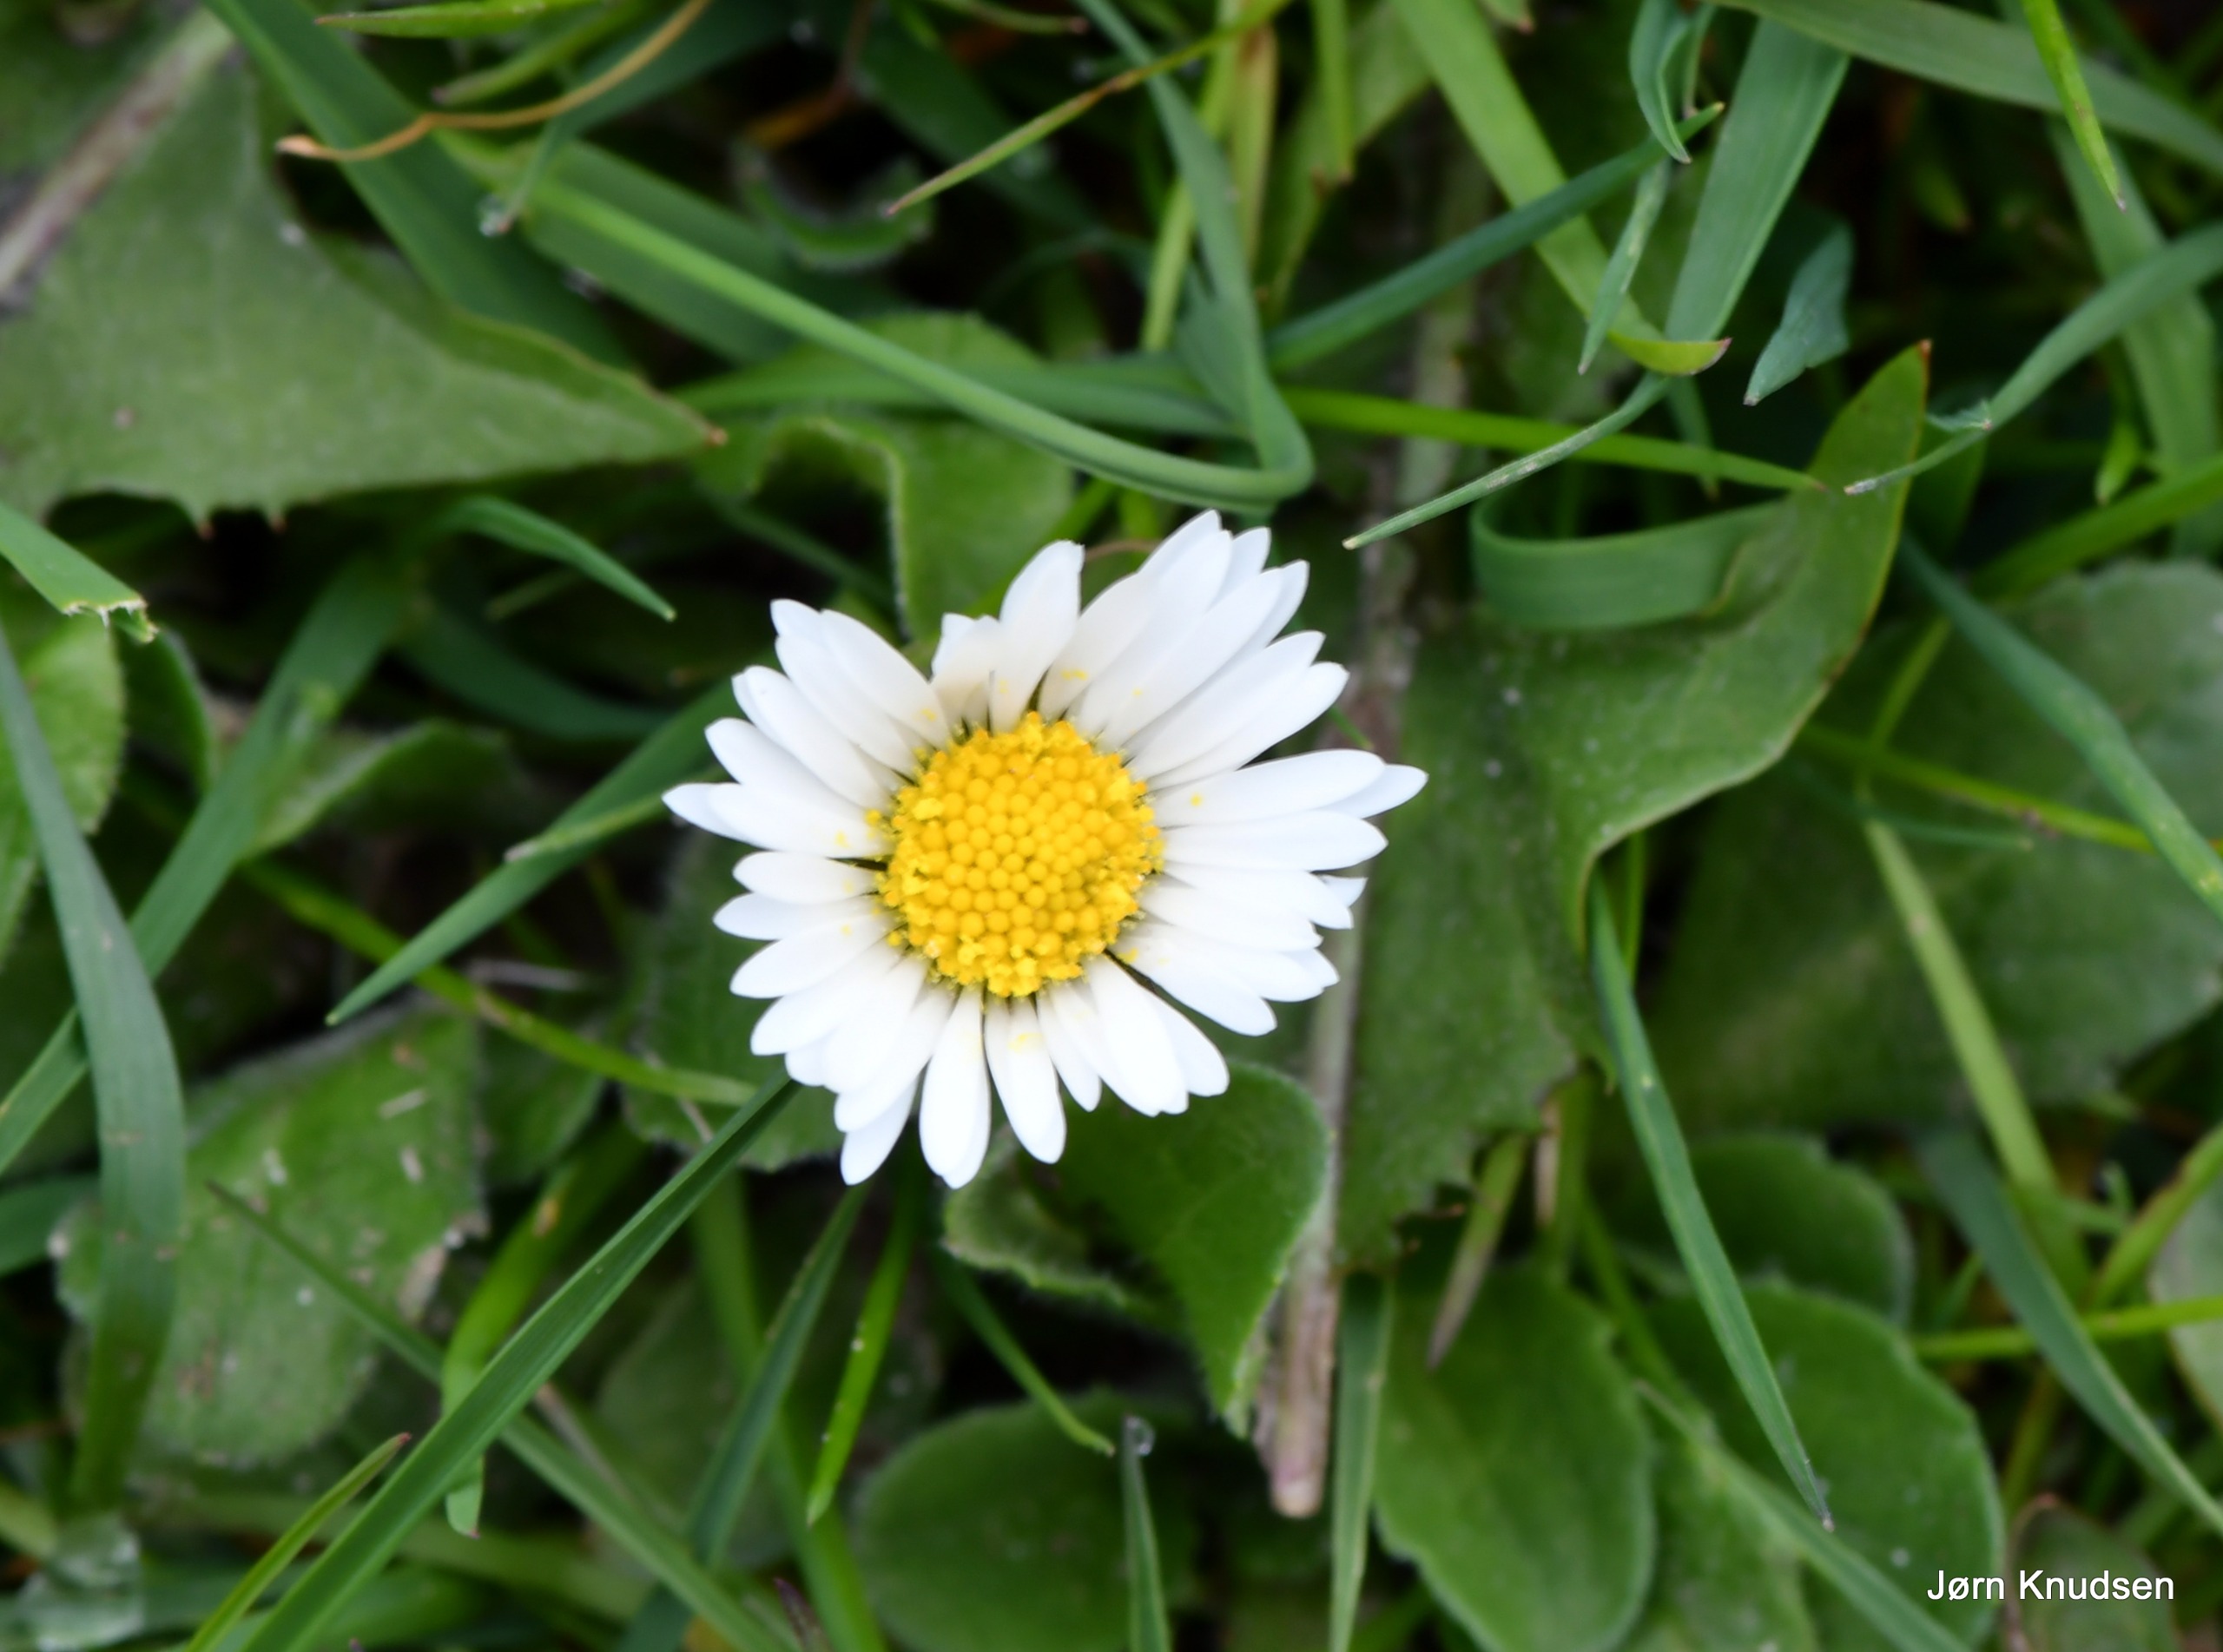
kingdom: Plantae
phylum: Tracheophyta
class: Magnoliopsida
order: Asterales
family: Asteraceae
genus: Bellis
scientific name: Bellis perennis
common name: Tusindfryd
